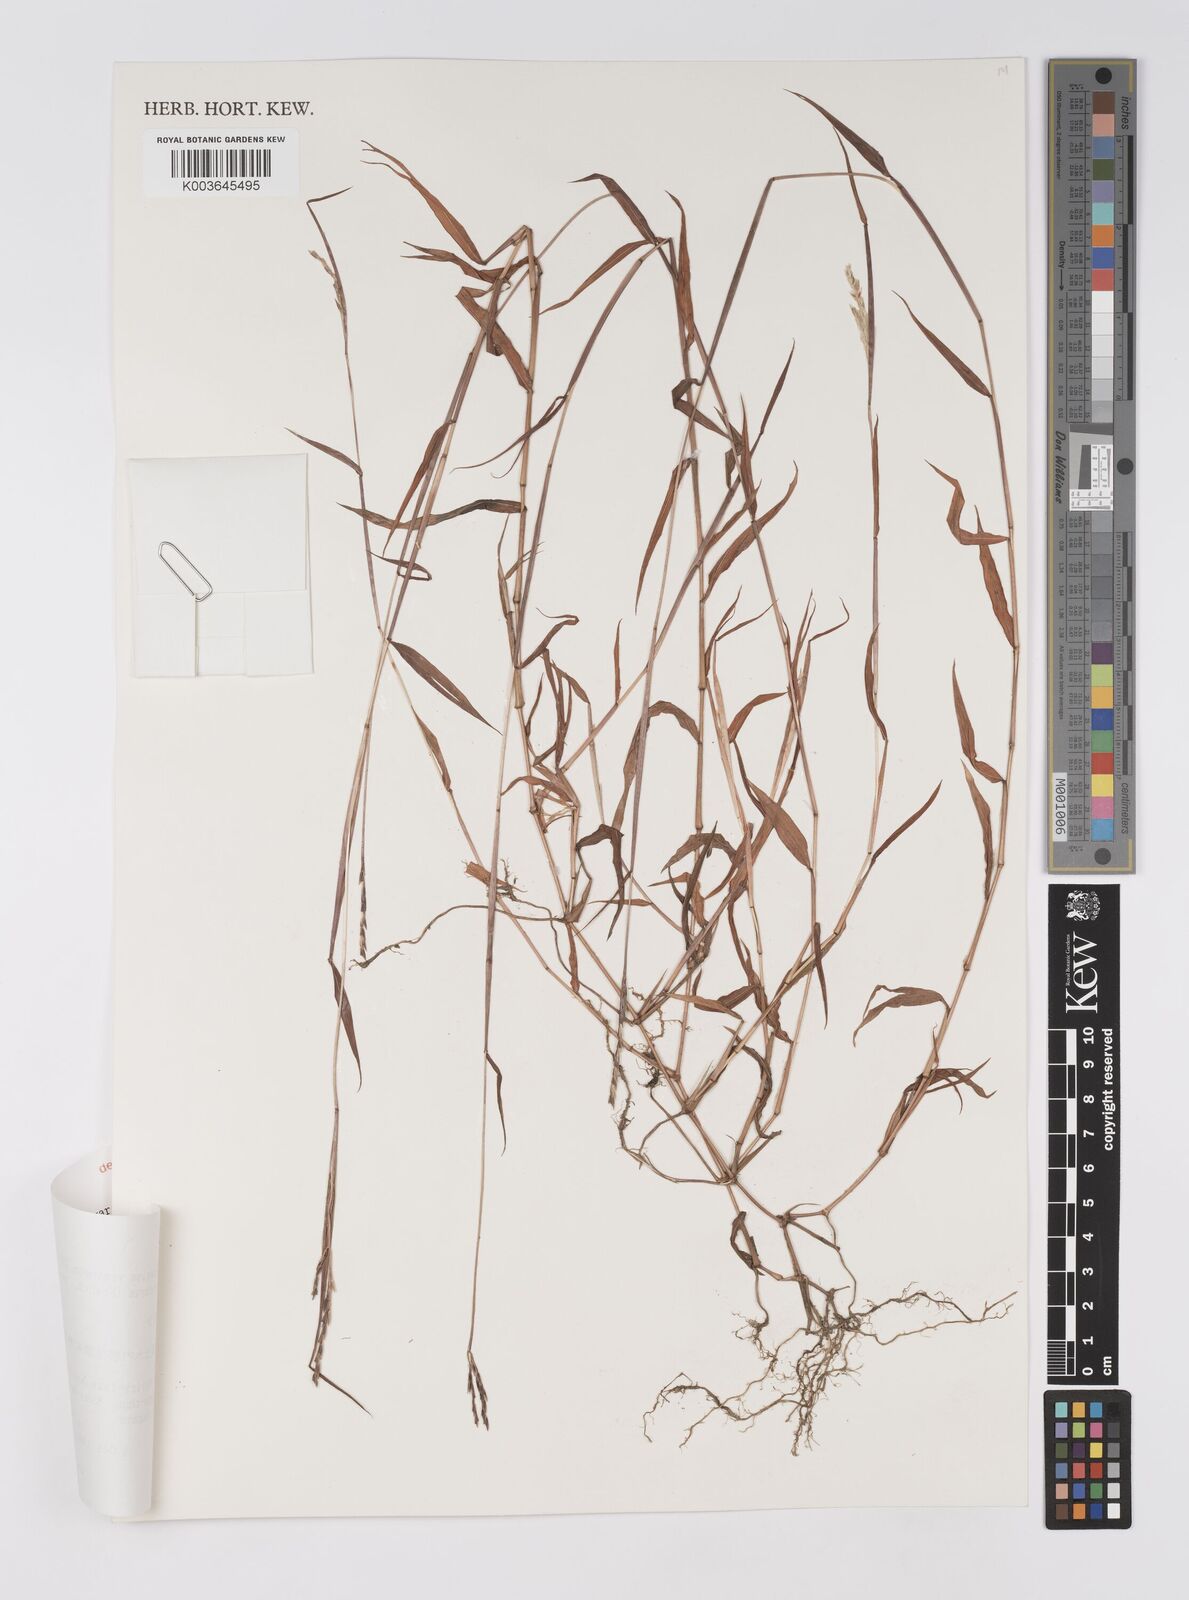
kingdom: Plantae
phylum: Tracheophyta
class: Liliopsida
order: Poales
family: Poaceae
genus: Microstegium
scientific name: Microstegium vimineum
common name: Japanese stiltgrass
